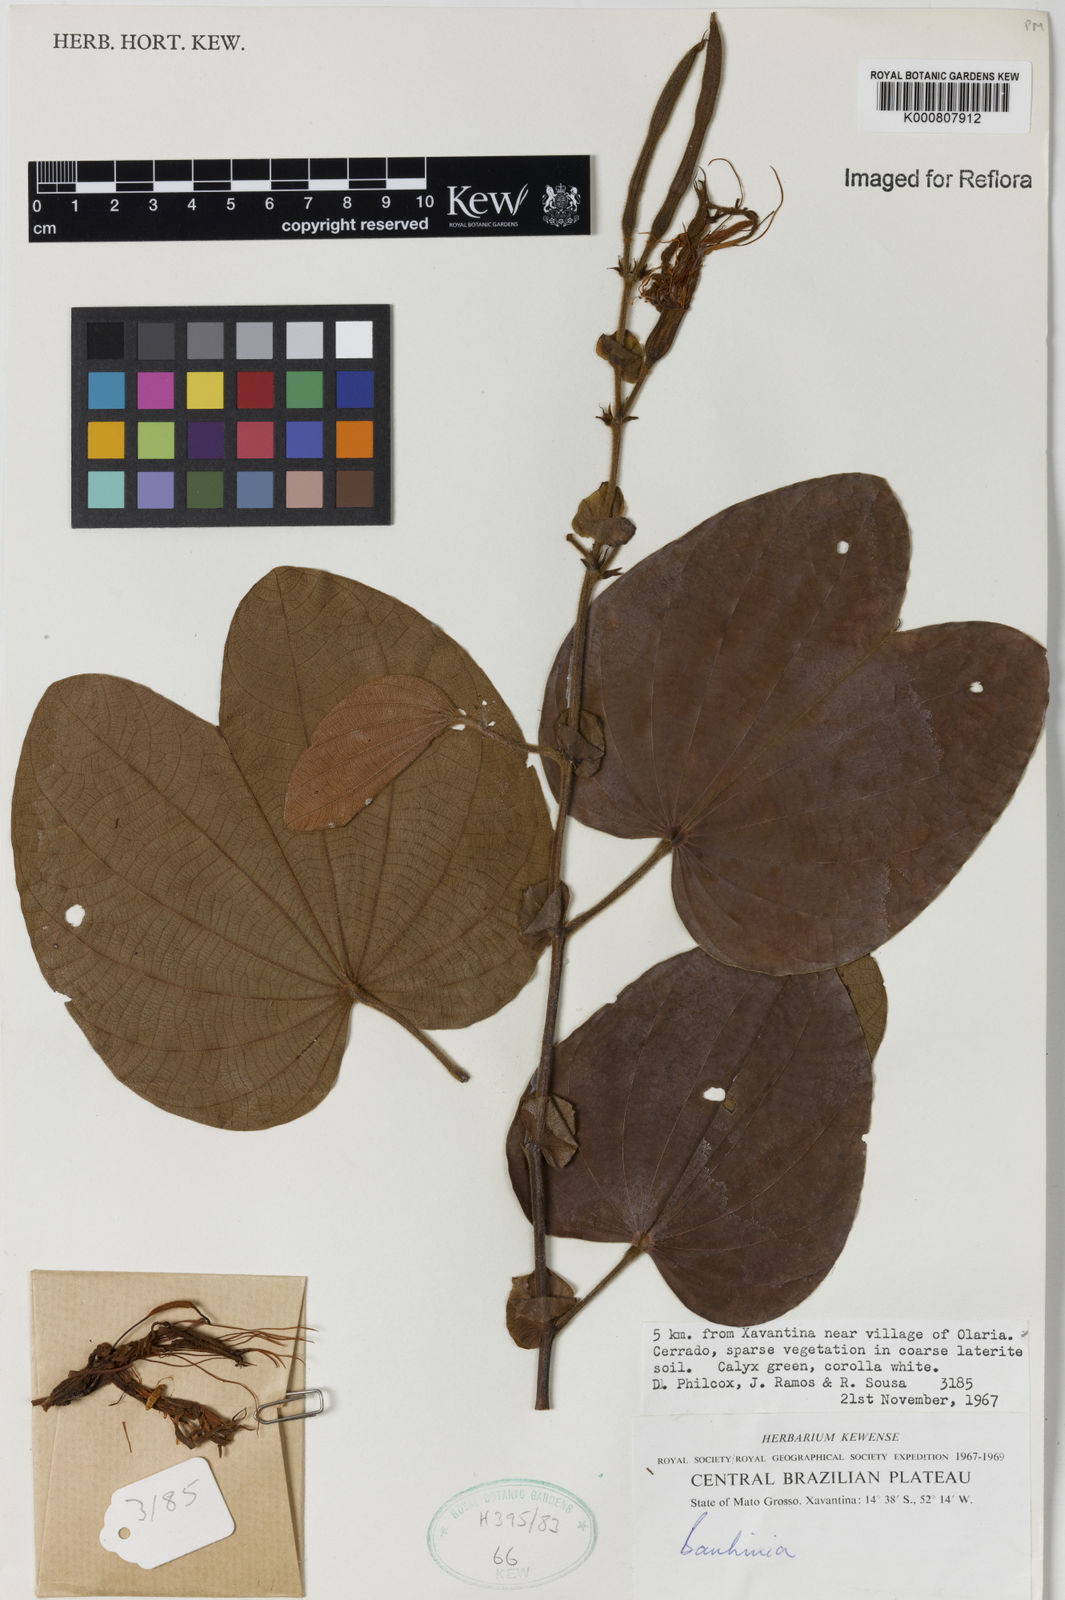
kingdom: Plantae
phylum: Tracheophyta
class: Magnoliopsida
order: Fabales
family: Fabaceae
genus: Bauhinia
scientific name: Bauhinia
